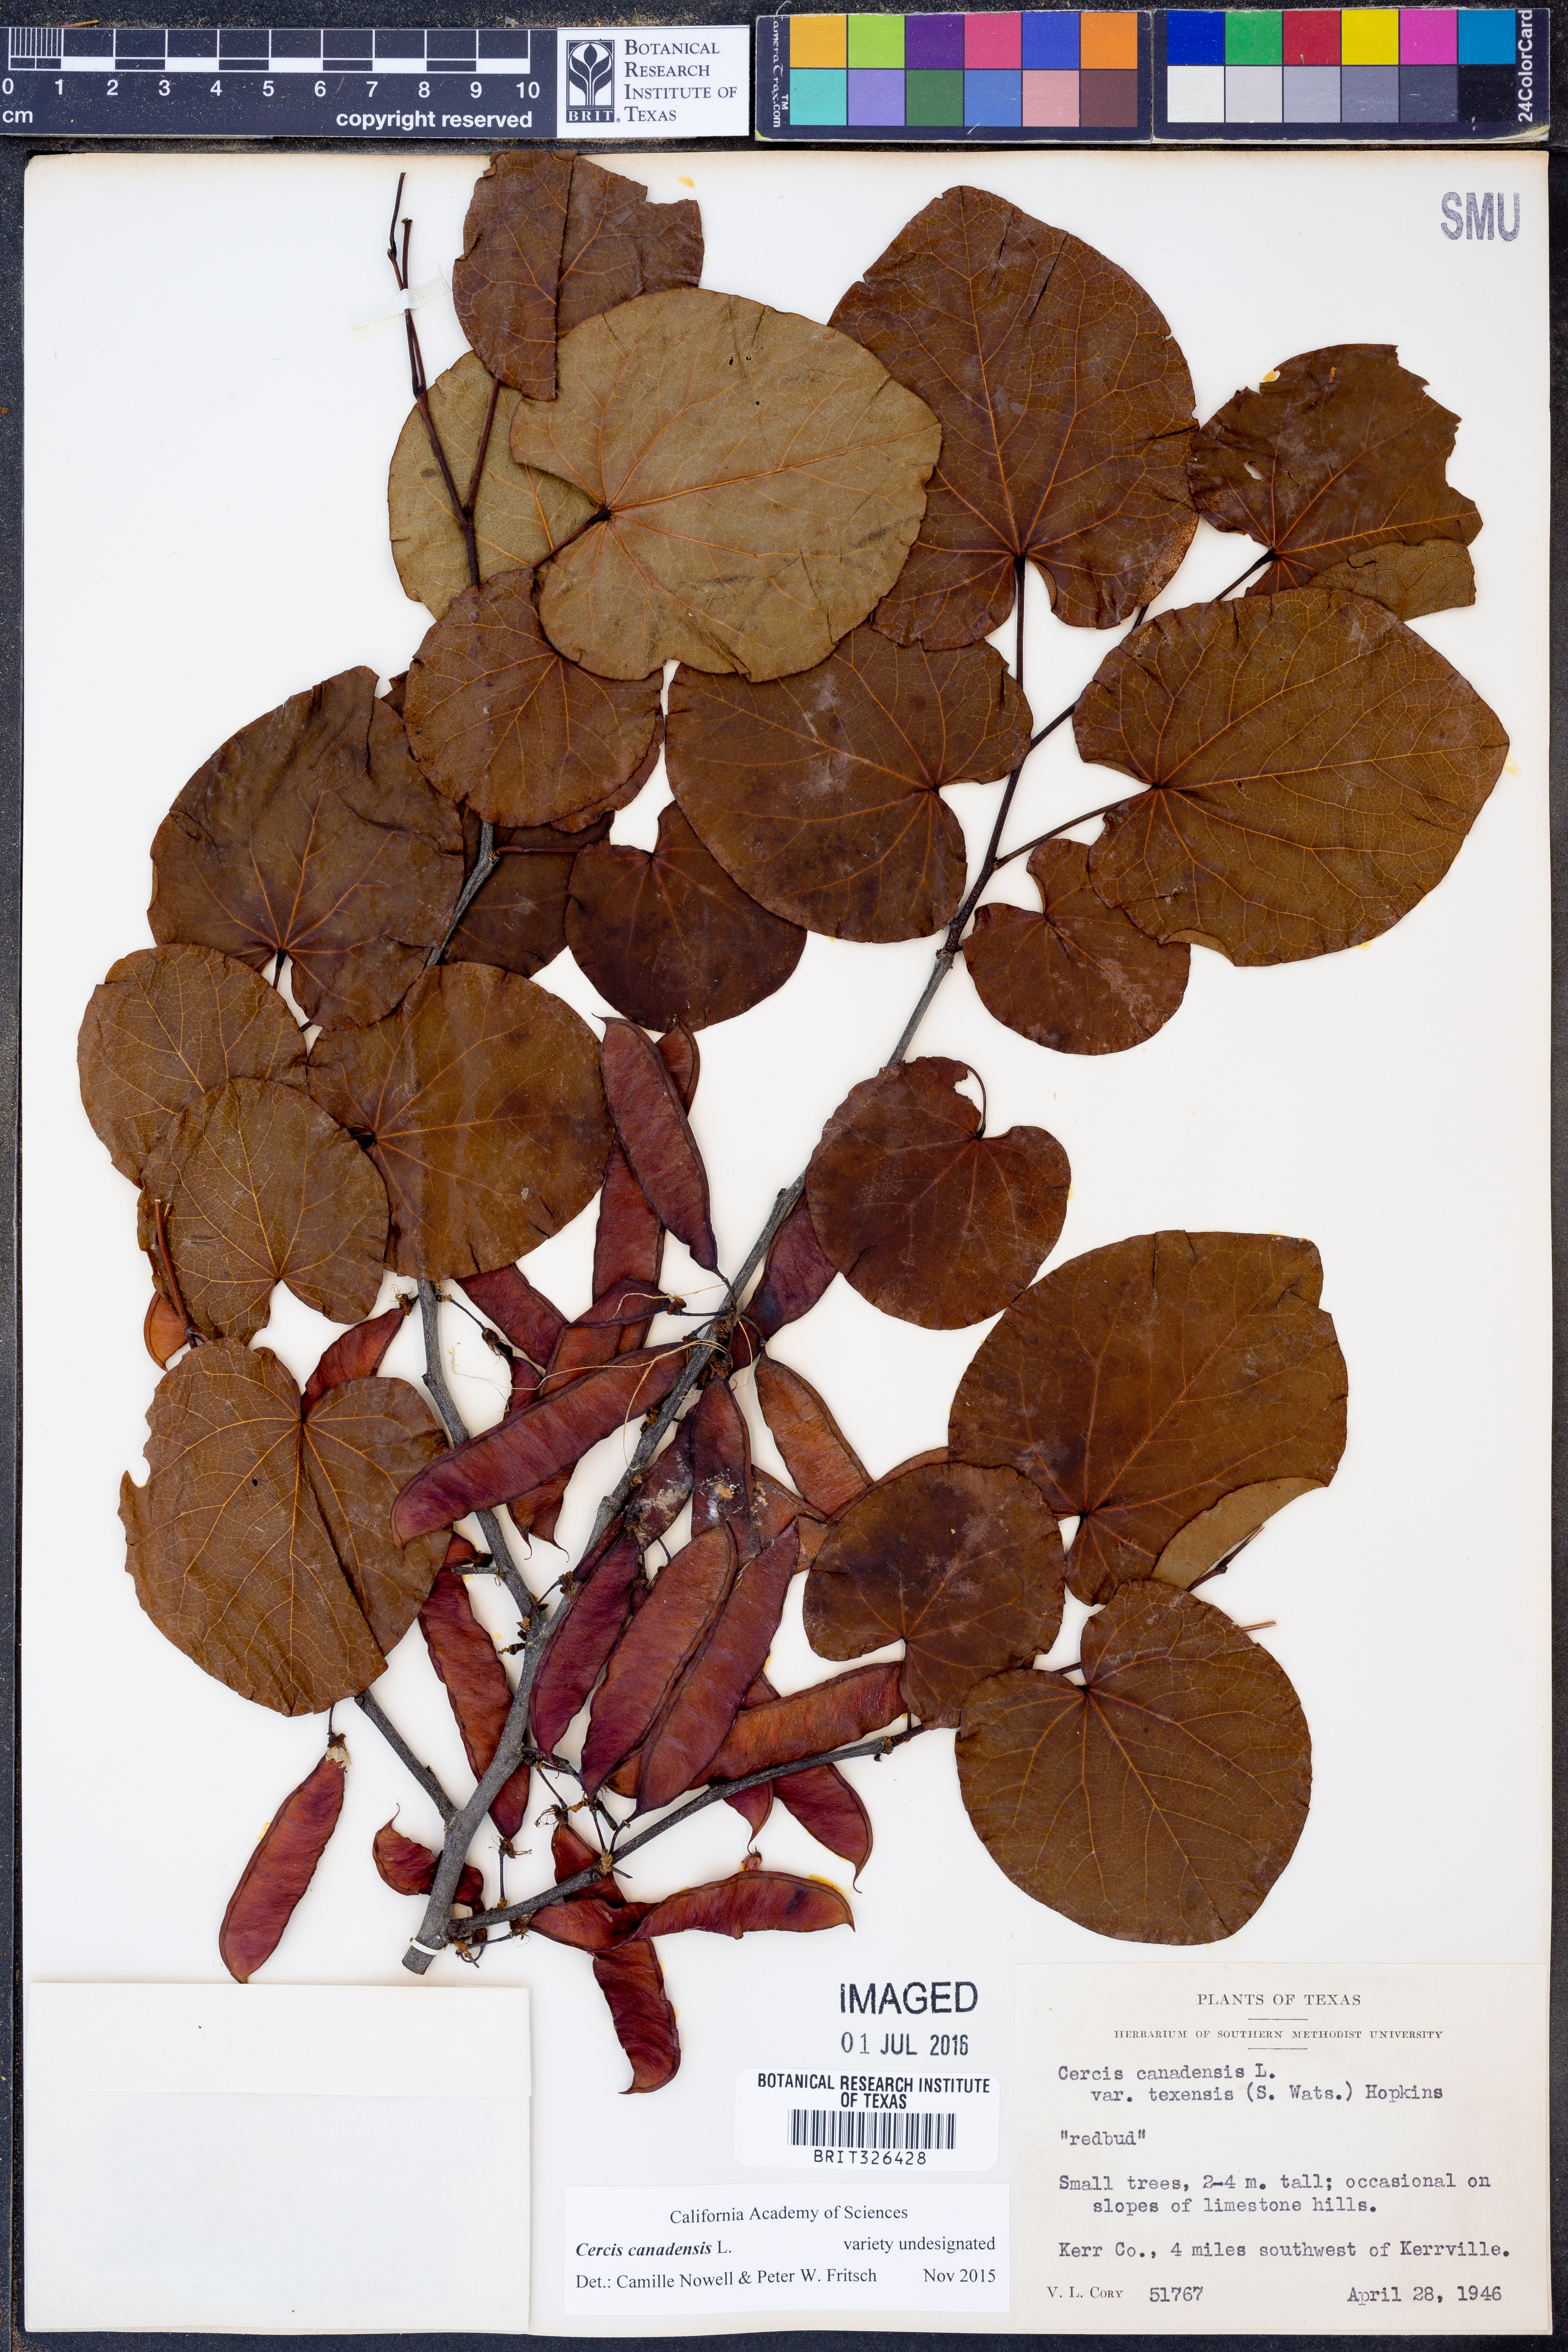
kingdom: Plantae
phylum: Tracheophyta
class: Magnoliopsida
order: Fabales
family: Fabaceae
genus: Cercis
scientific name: Cercis canadensis
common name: Eastern redbud
